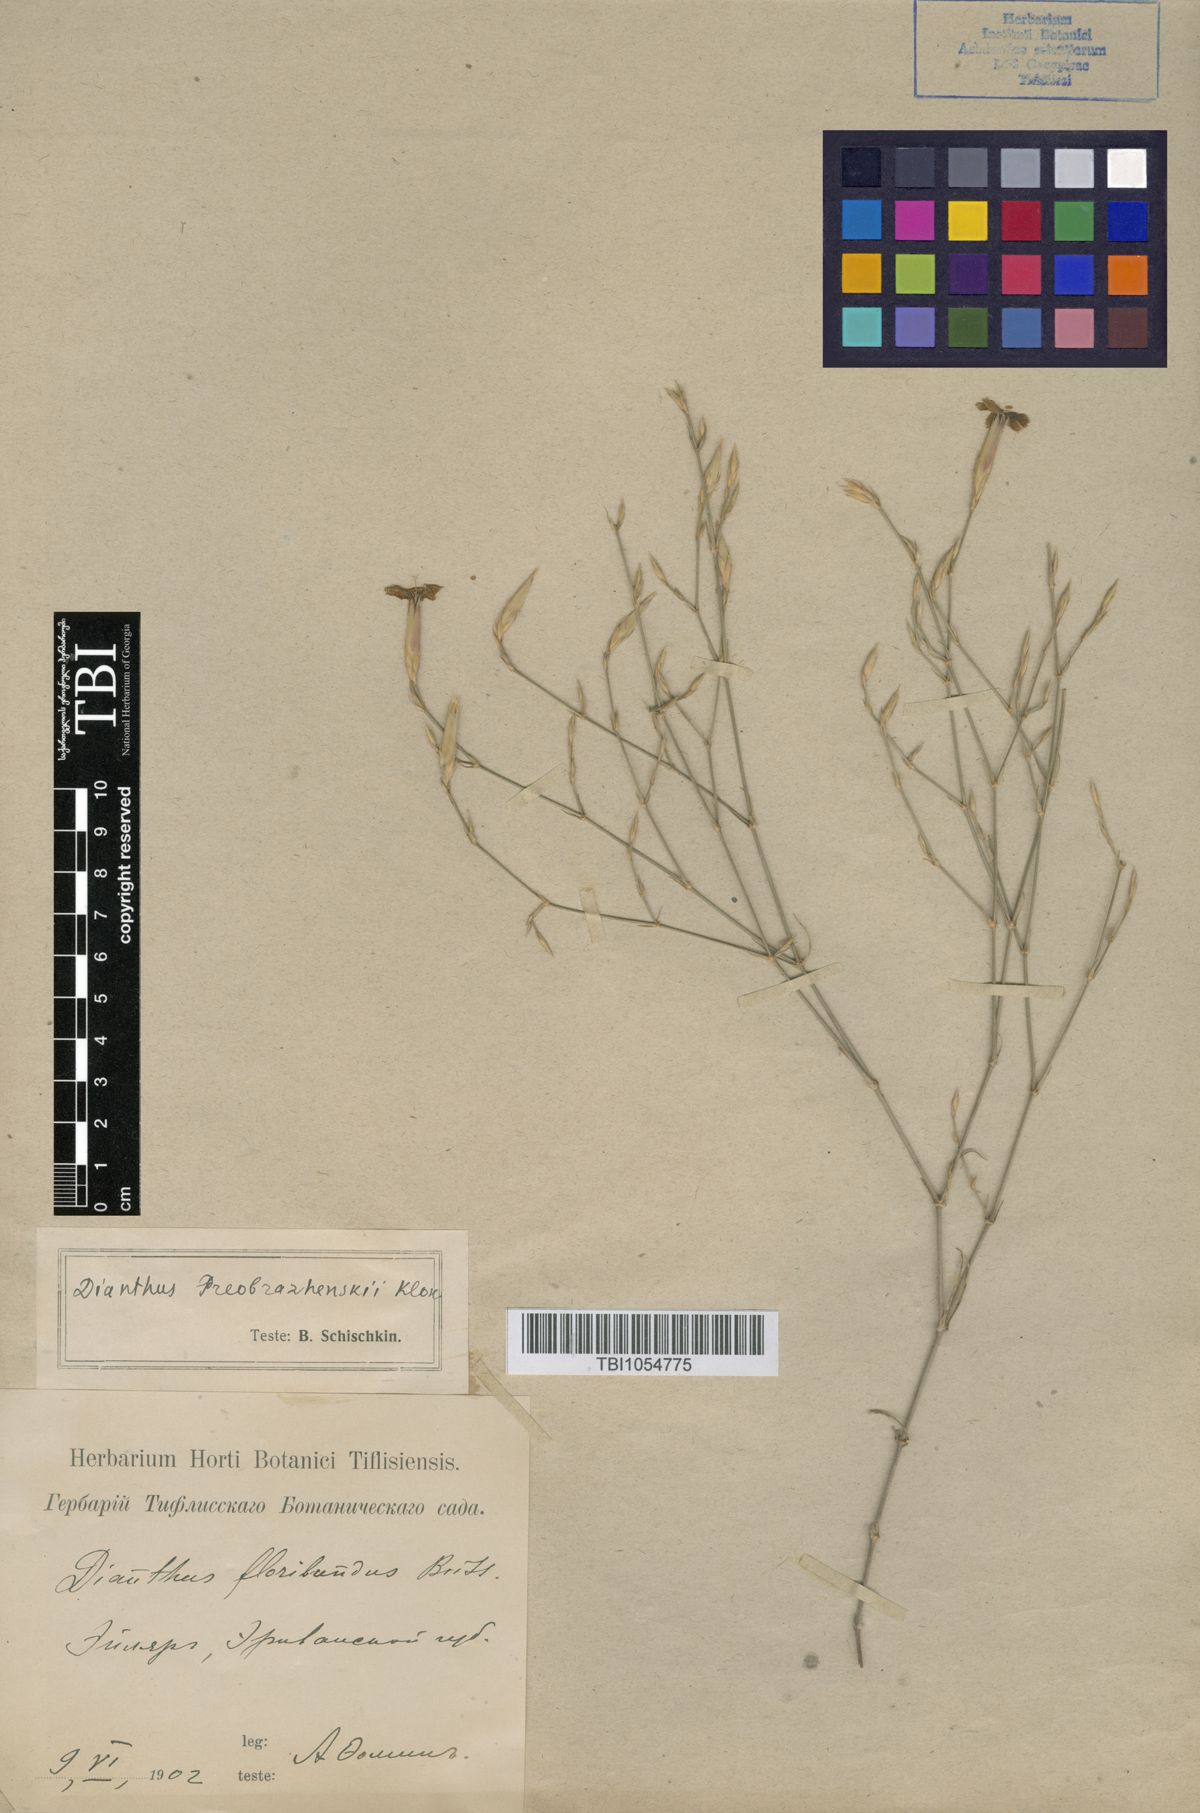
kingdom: Plantae
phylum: Tracheophyta
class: Magnoliopsida
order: Caryophyllales
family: Caryophyllaceae
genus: Dianthus
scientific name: Dianthus bicolor
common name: Bicolour pink
